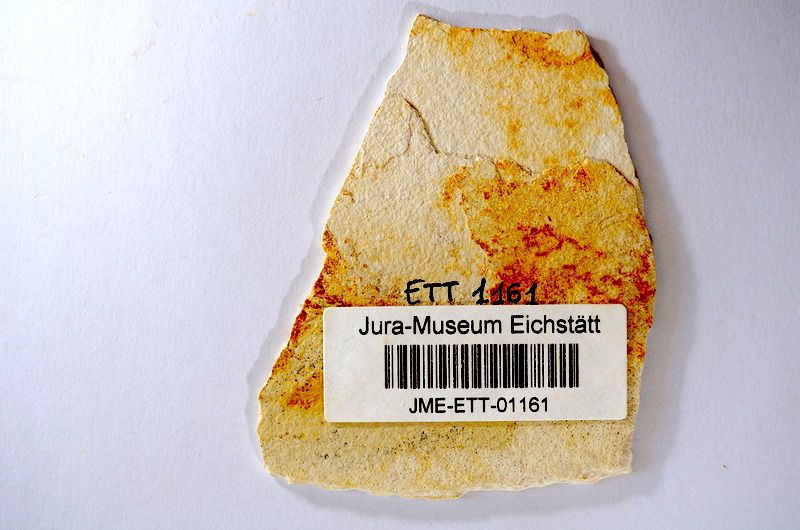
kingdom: Animalia
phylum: Chordata
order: Salmoniformes
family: Orthogonikleithridae
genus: Orthogonikleithrus
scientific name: Orthogonikleithrus hoelli
